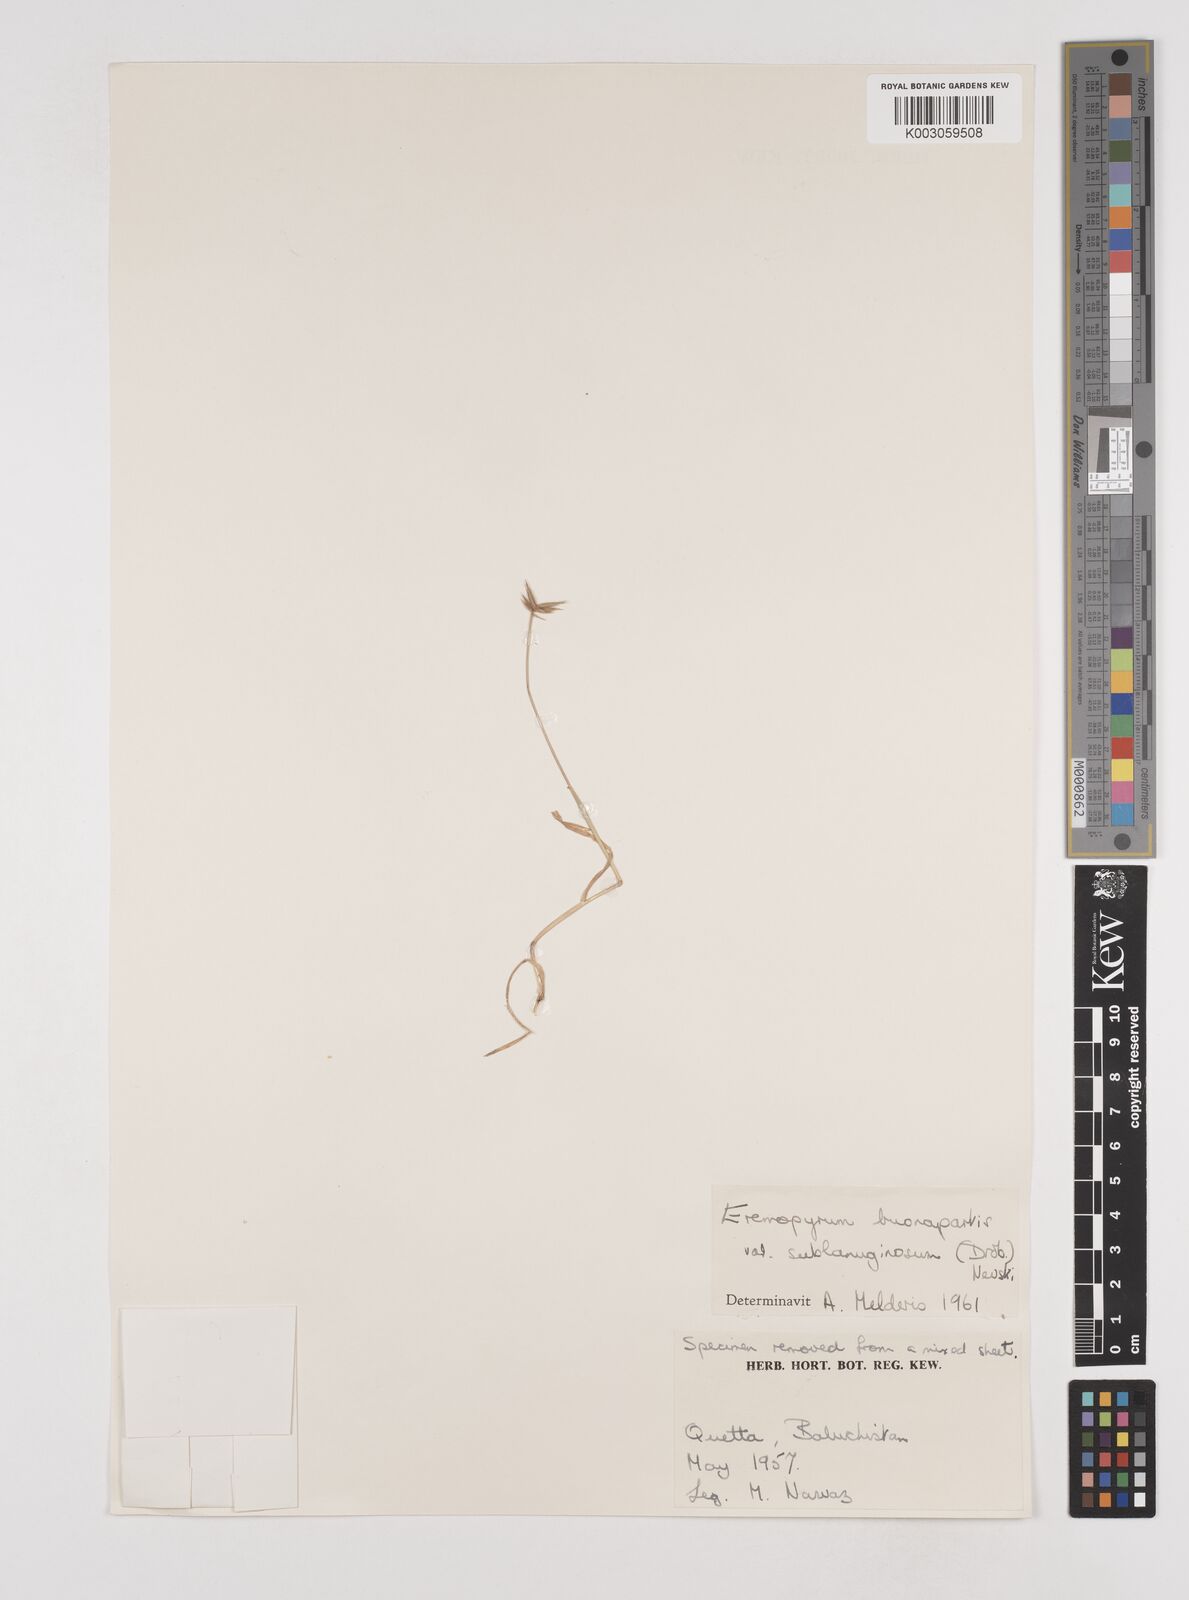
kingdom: Plantae
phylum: Tracheophyta
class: Liliopsida
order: Poales
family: Poaceae
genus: Eremopyrum
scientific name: Eremopyrum bonaepartis
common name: Tapertip false wheatgrass
